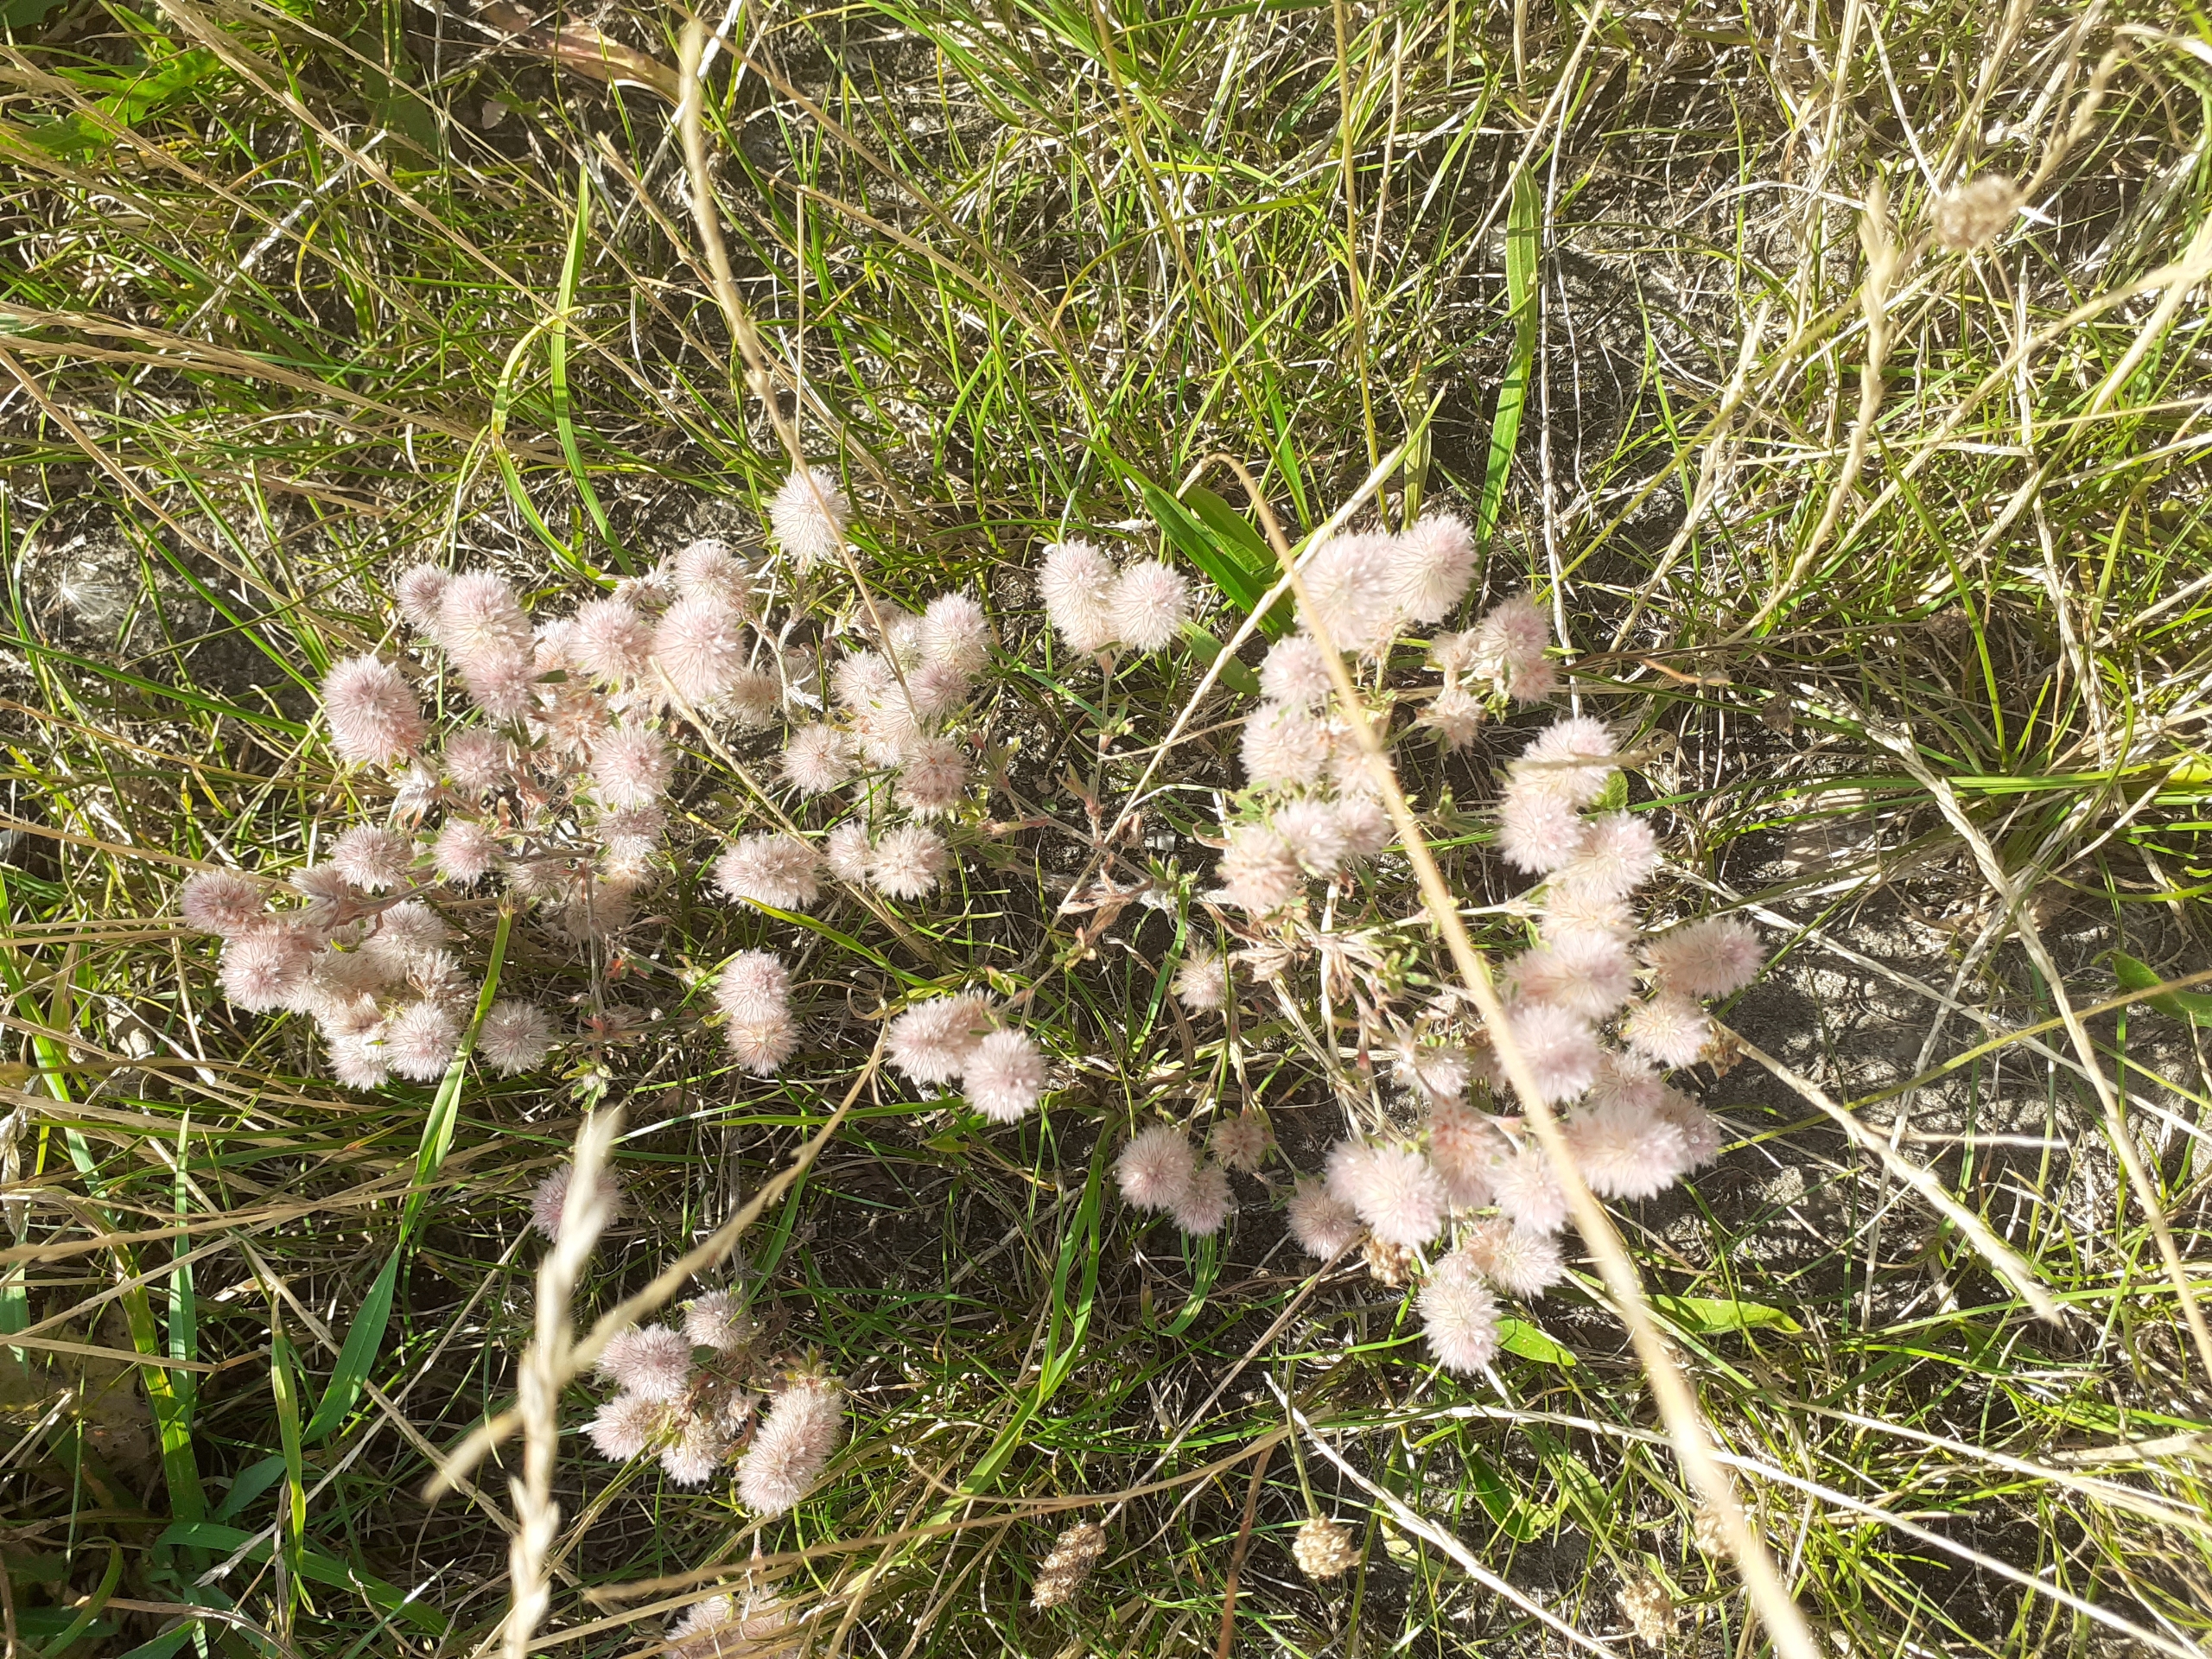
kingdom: Plantae
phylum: Tracheophyta
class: Magnoliopsida
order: Fabales
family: Fabaceae
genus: Trifolium
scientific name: Trifolium arvense
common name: Hare-kløver
